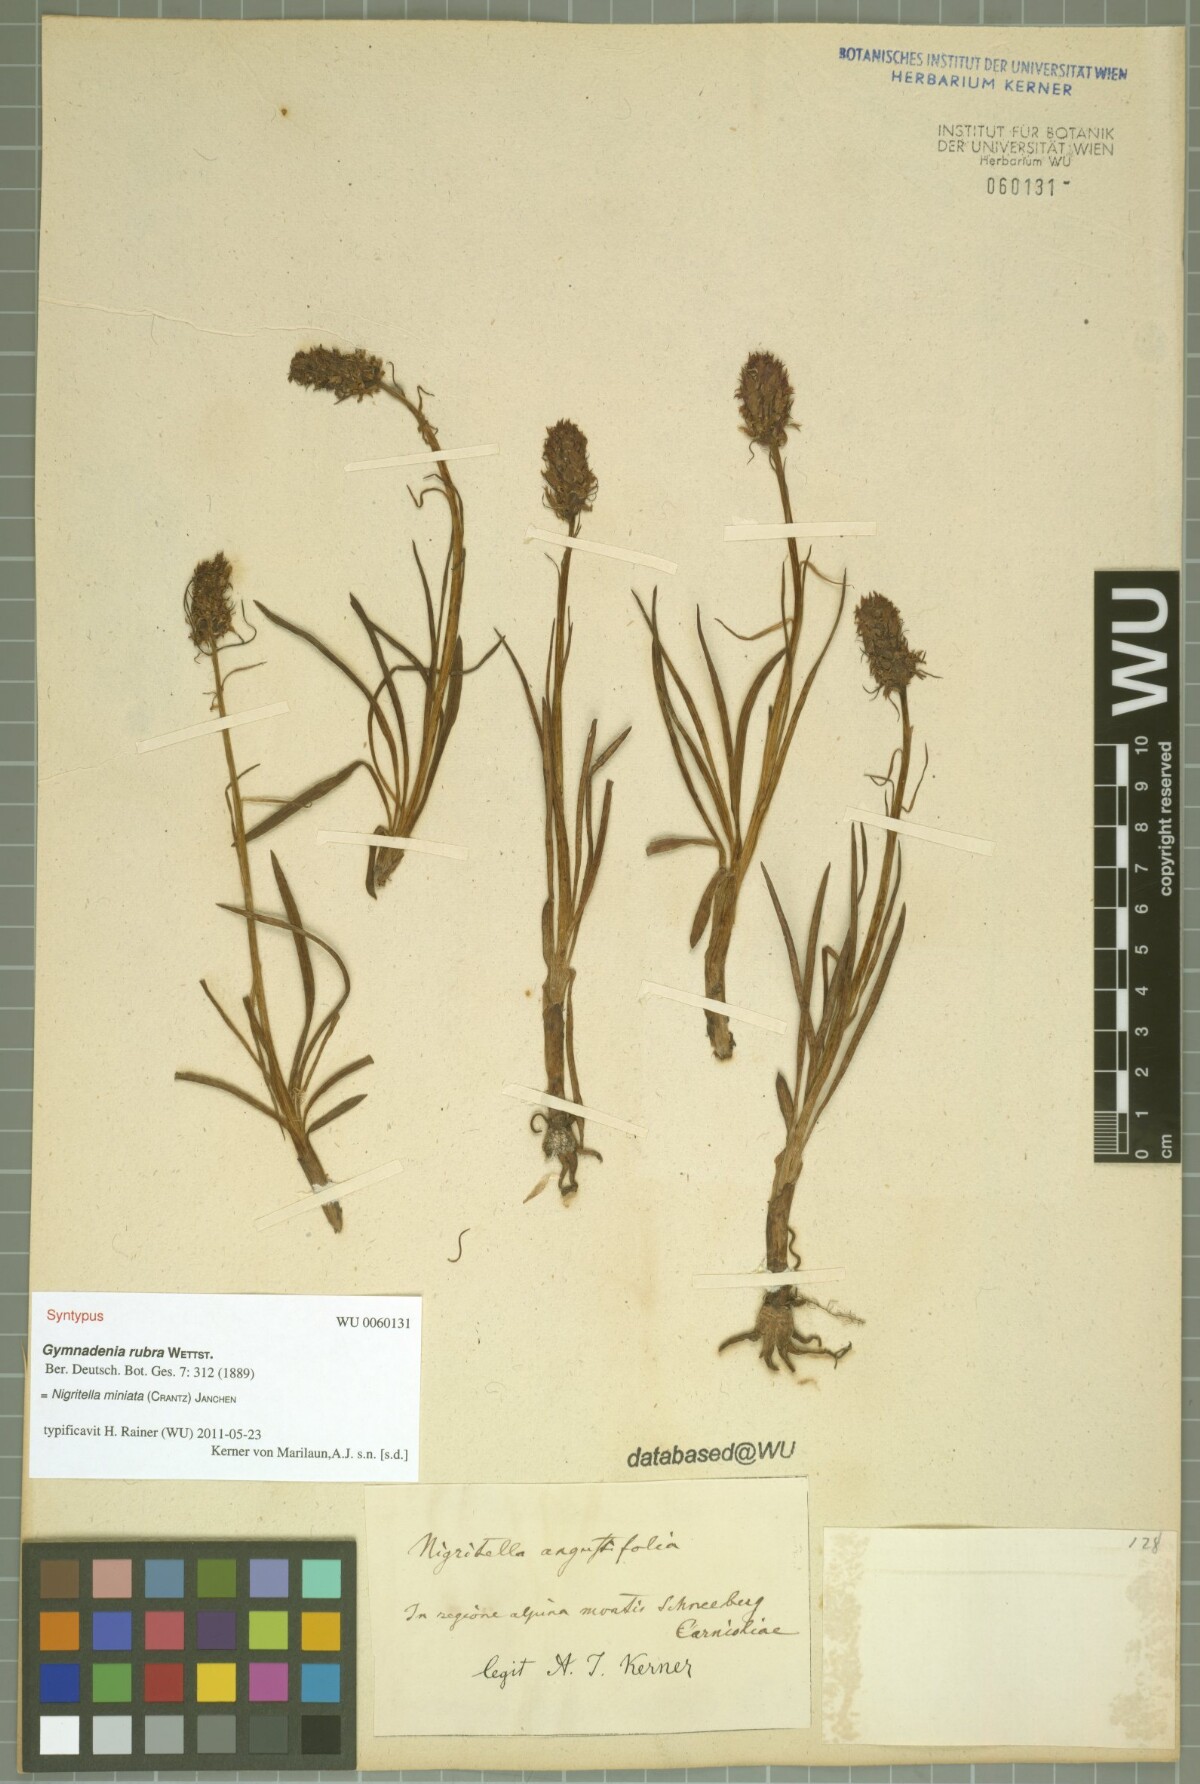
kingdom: Plantae
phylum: Tracheophyta
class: Liliopsida
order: Asparagales
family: Orchidaceae
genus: Gymnadenia
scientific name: Gymnadenia miniata
